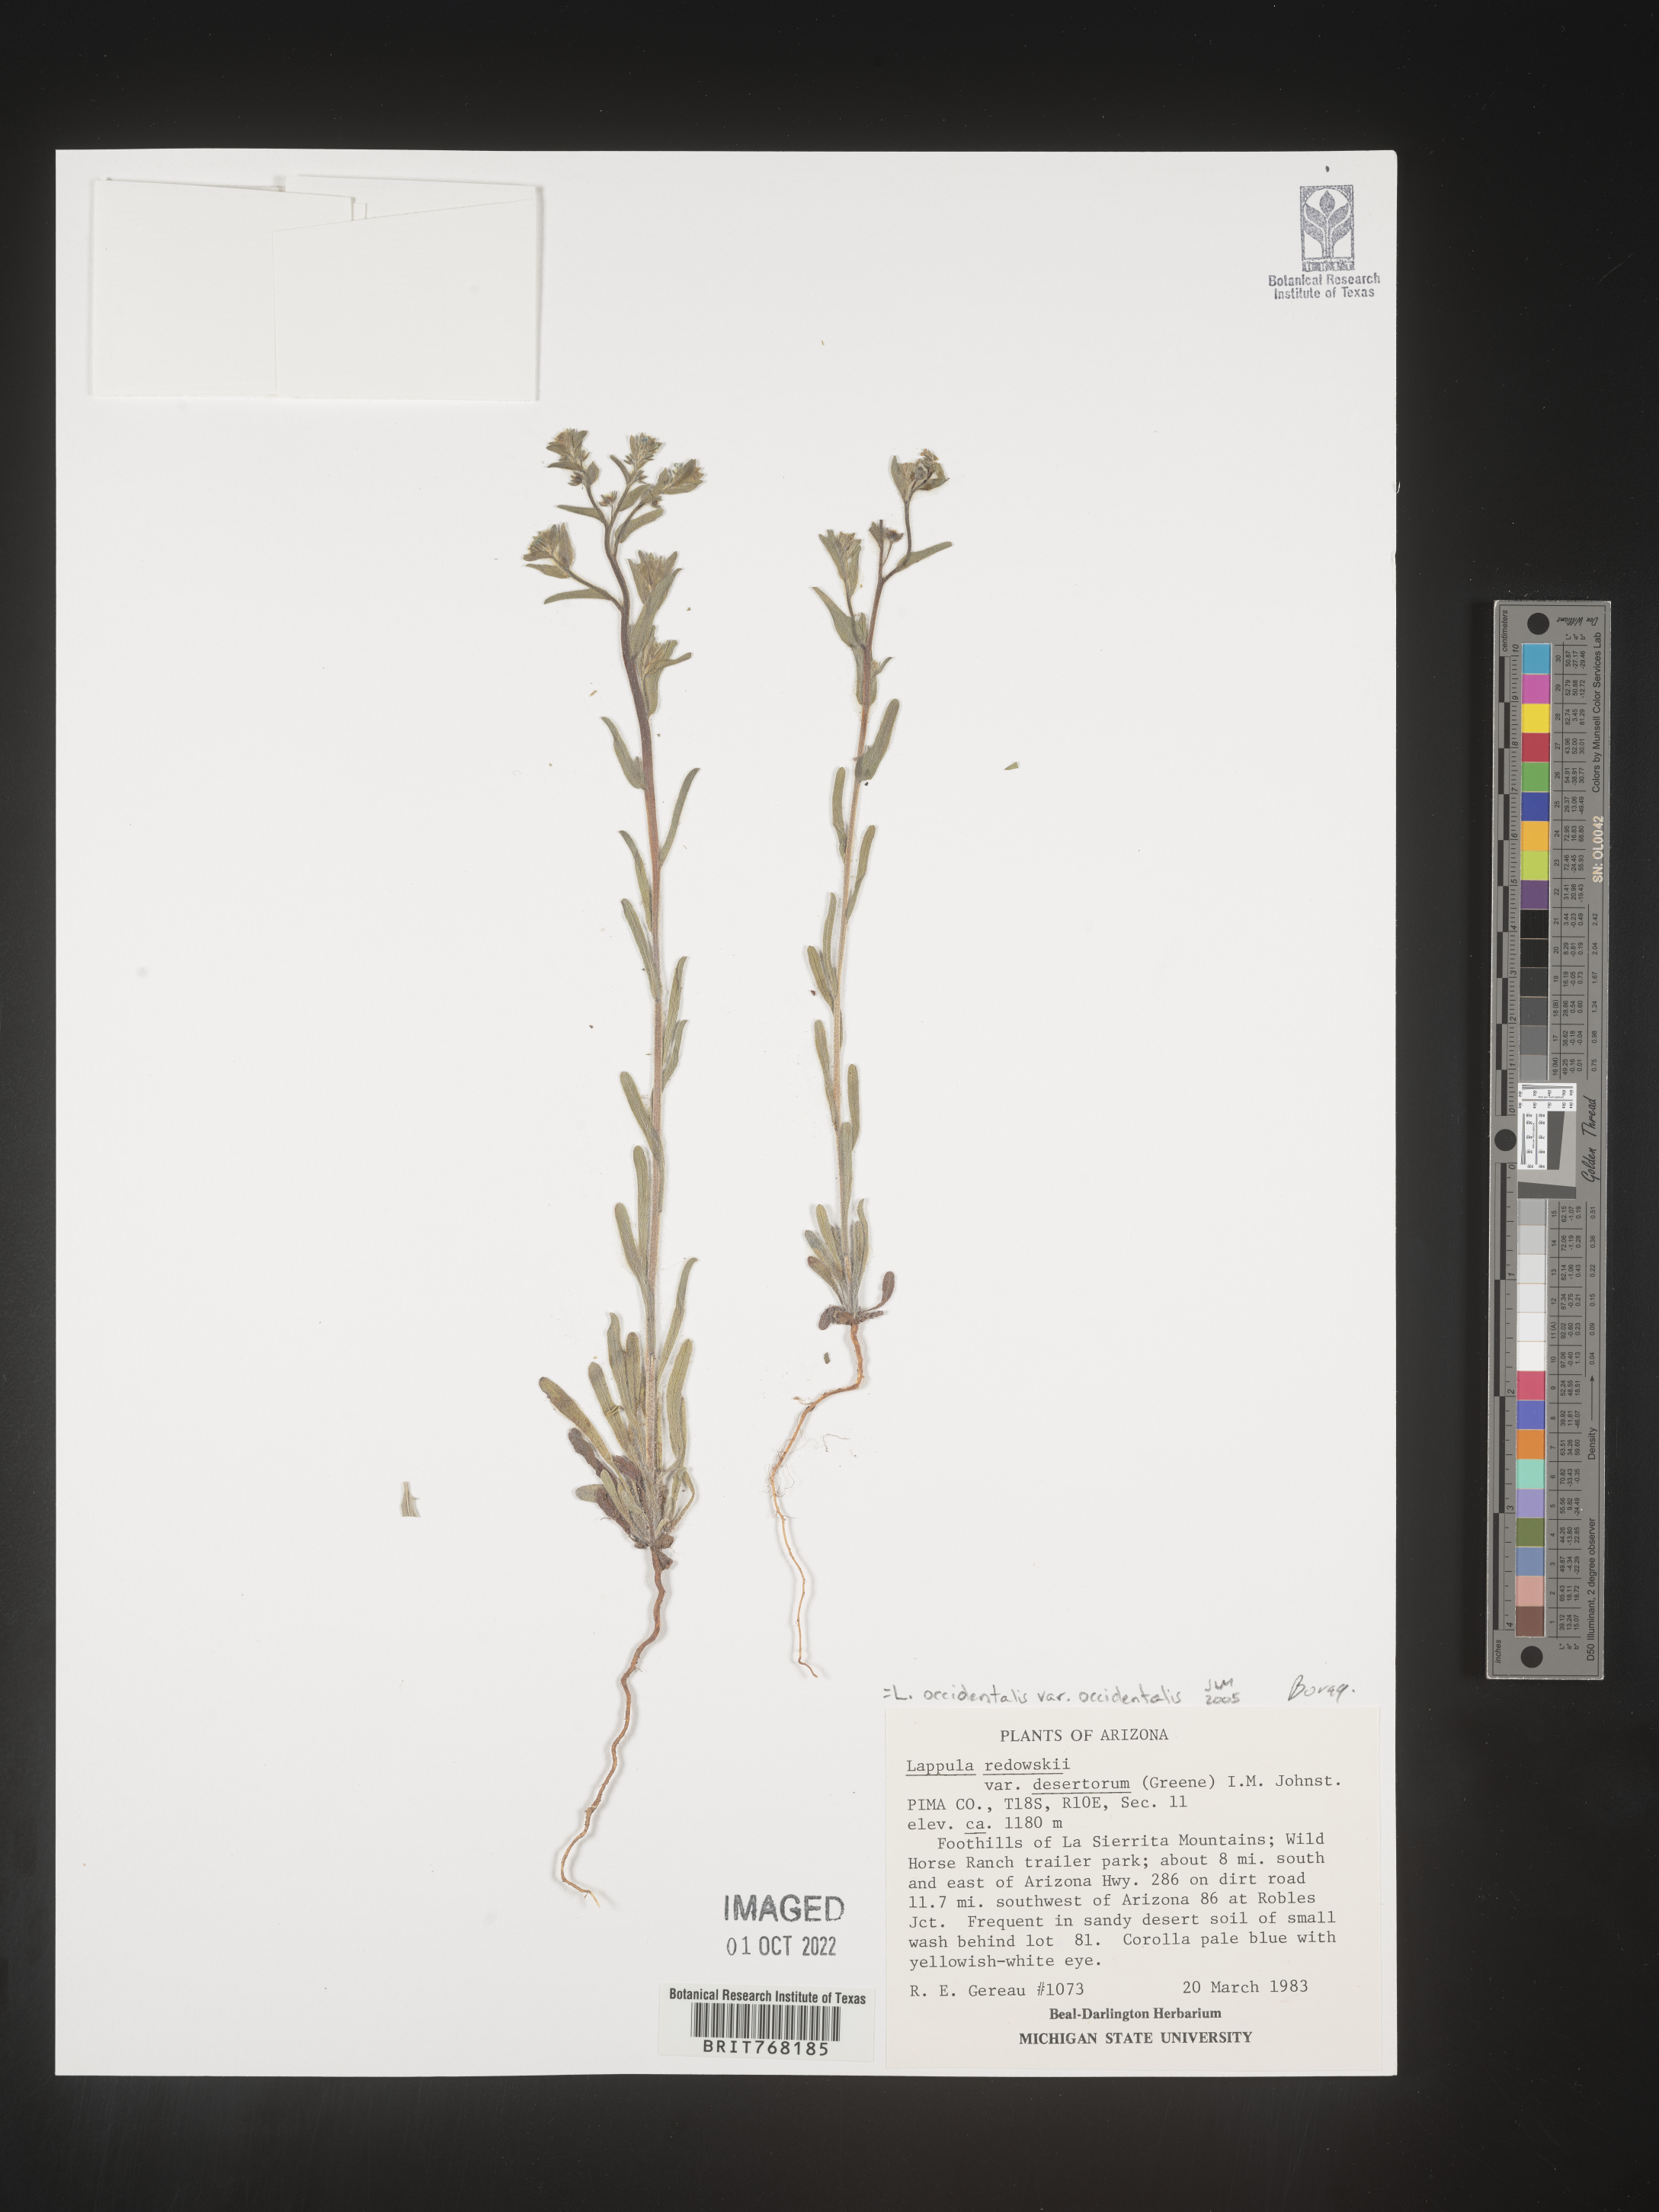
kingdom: Plantae
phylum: Tracheophyta
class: Magnoliopsida
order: Boraginales
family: Boraginaceae
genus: Lappula
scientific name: Lappula
